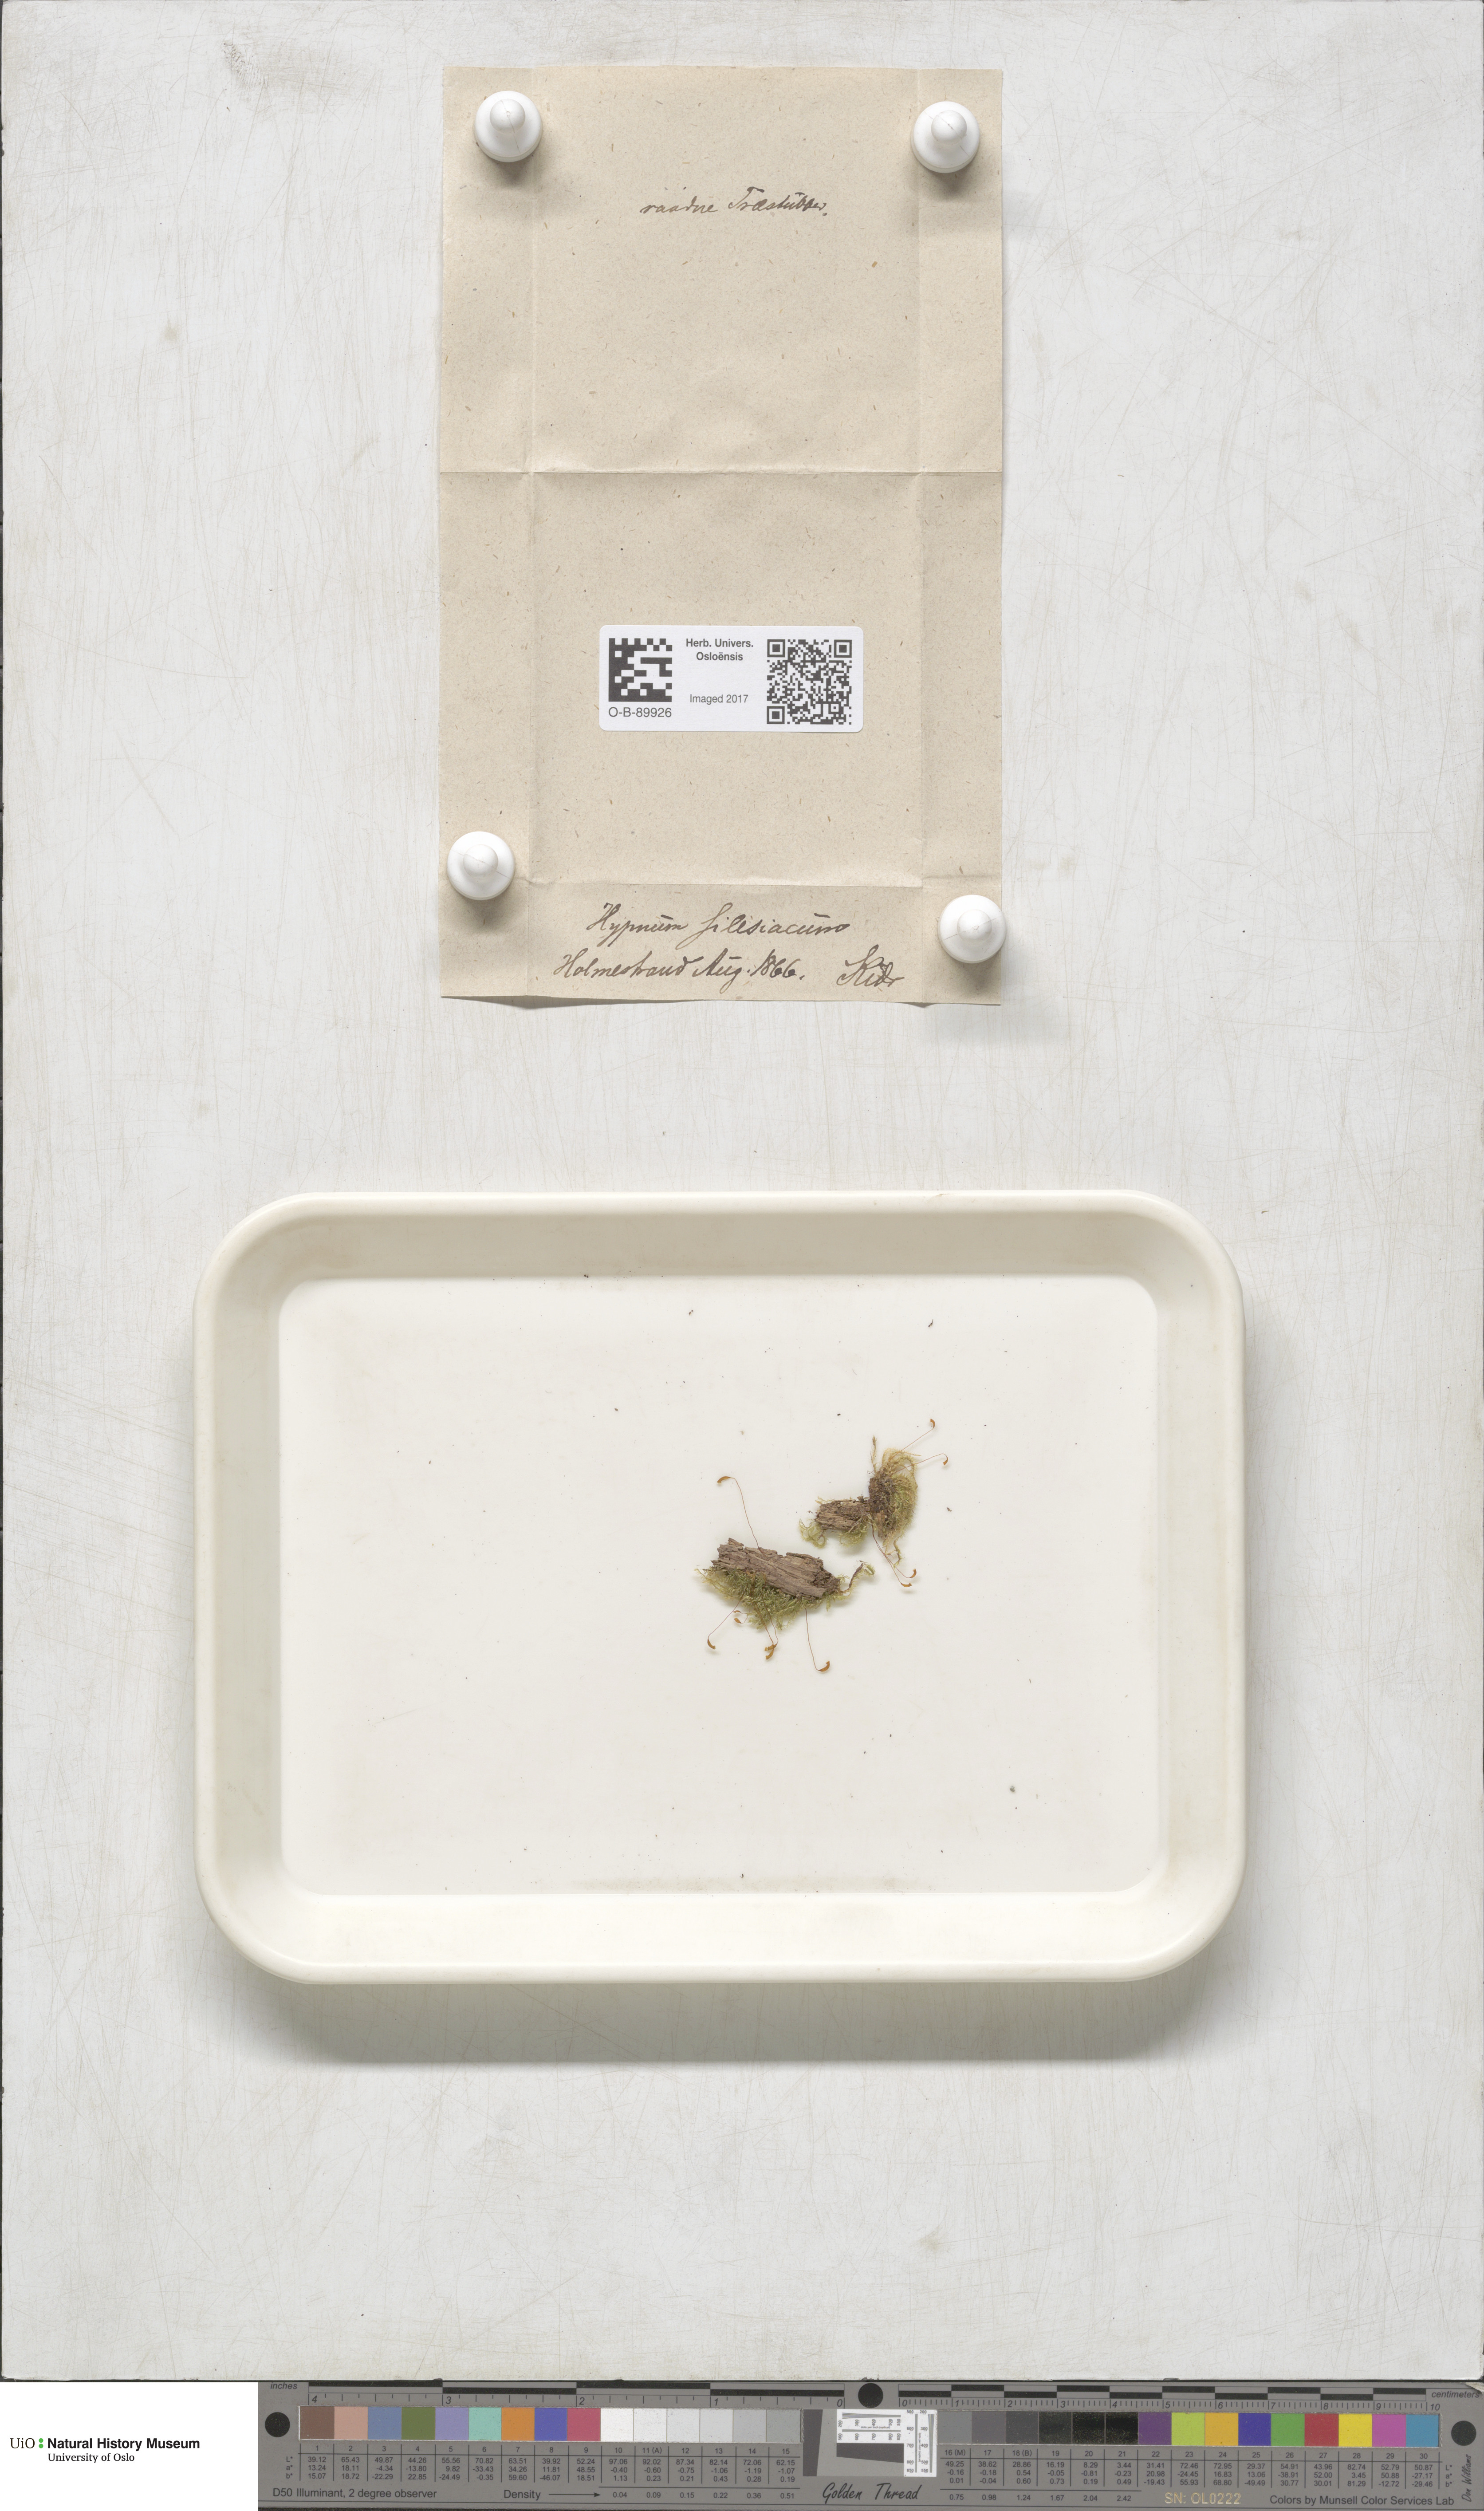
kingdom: Plantae
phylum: Bryophyta
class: Bryopsida
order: Hypnales
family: Plagiotheciaceae
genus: Herzogiella
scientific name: Herzogiella seligeri
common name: Silesian feather-moss
